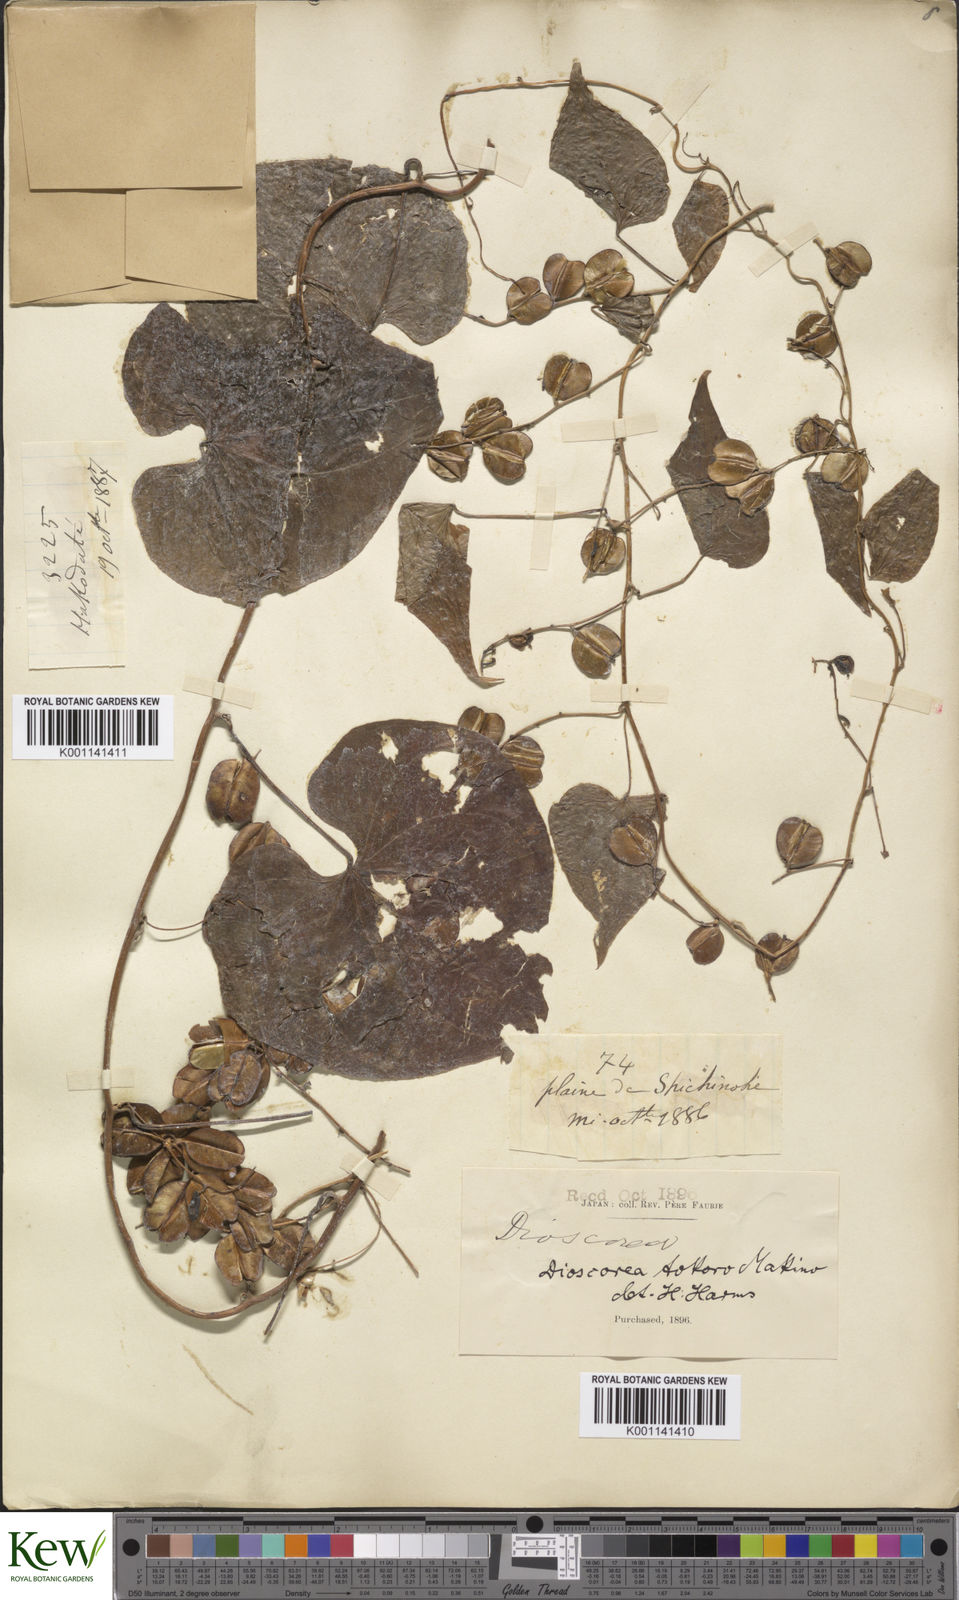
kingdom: Plantae
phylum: Tracheophyta
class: Liliopsida
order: Dioscoreales
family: Dioscoreaceae
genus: Dioscorea
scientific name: Dioscorea tokoro
